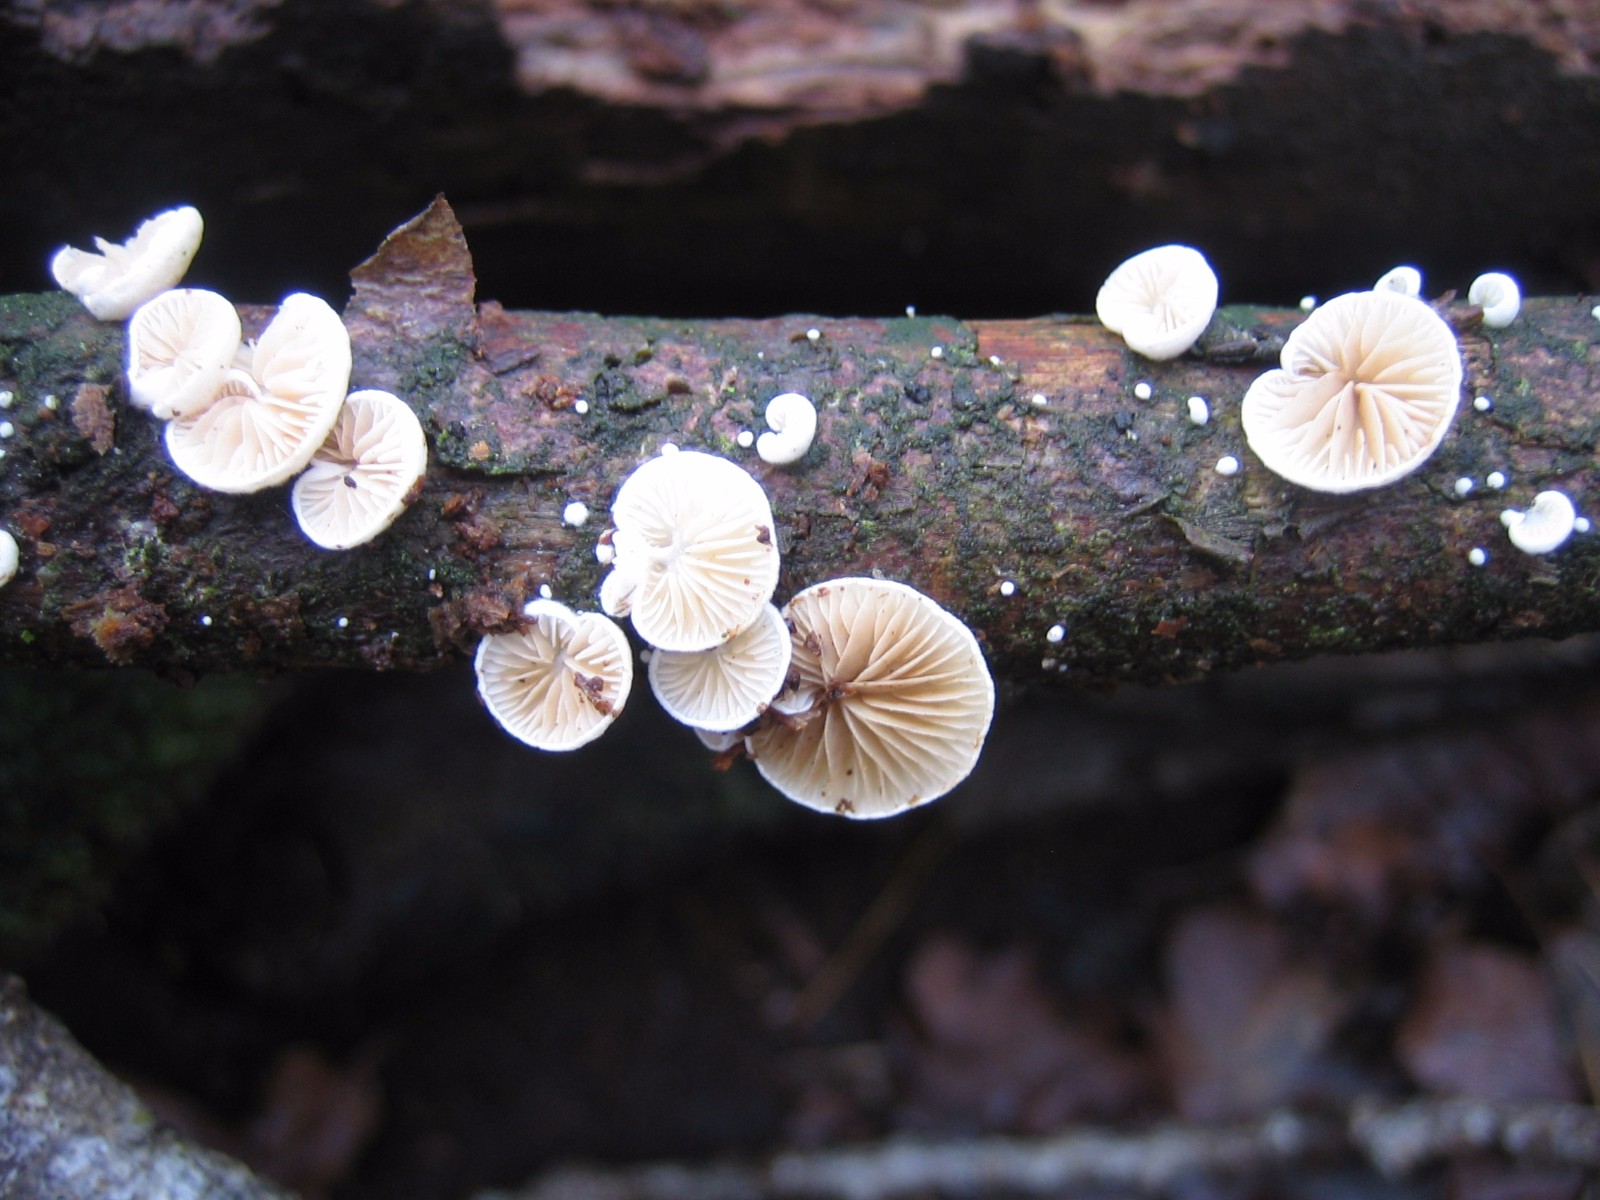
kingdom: Fungi
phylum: Basidiomycota
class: Agaricomycetes
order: Agaricales
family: Crepidotaceae
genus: Crepidotus
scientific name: Crepidotus
